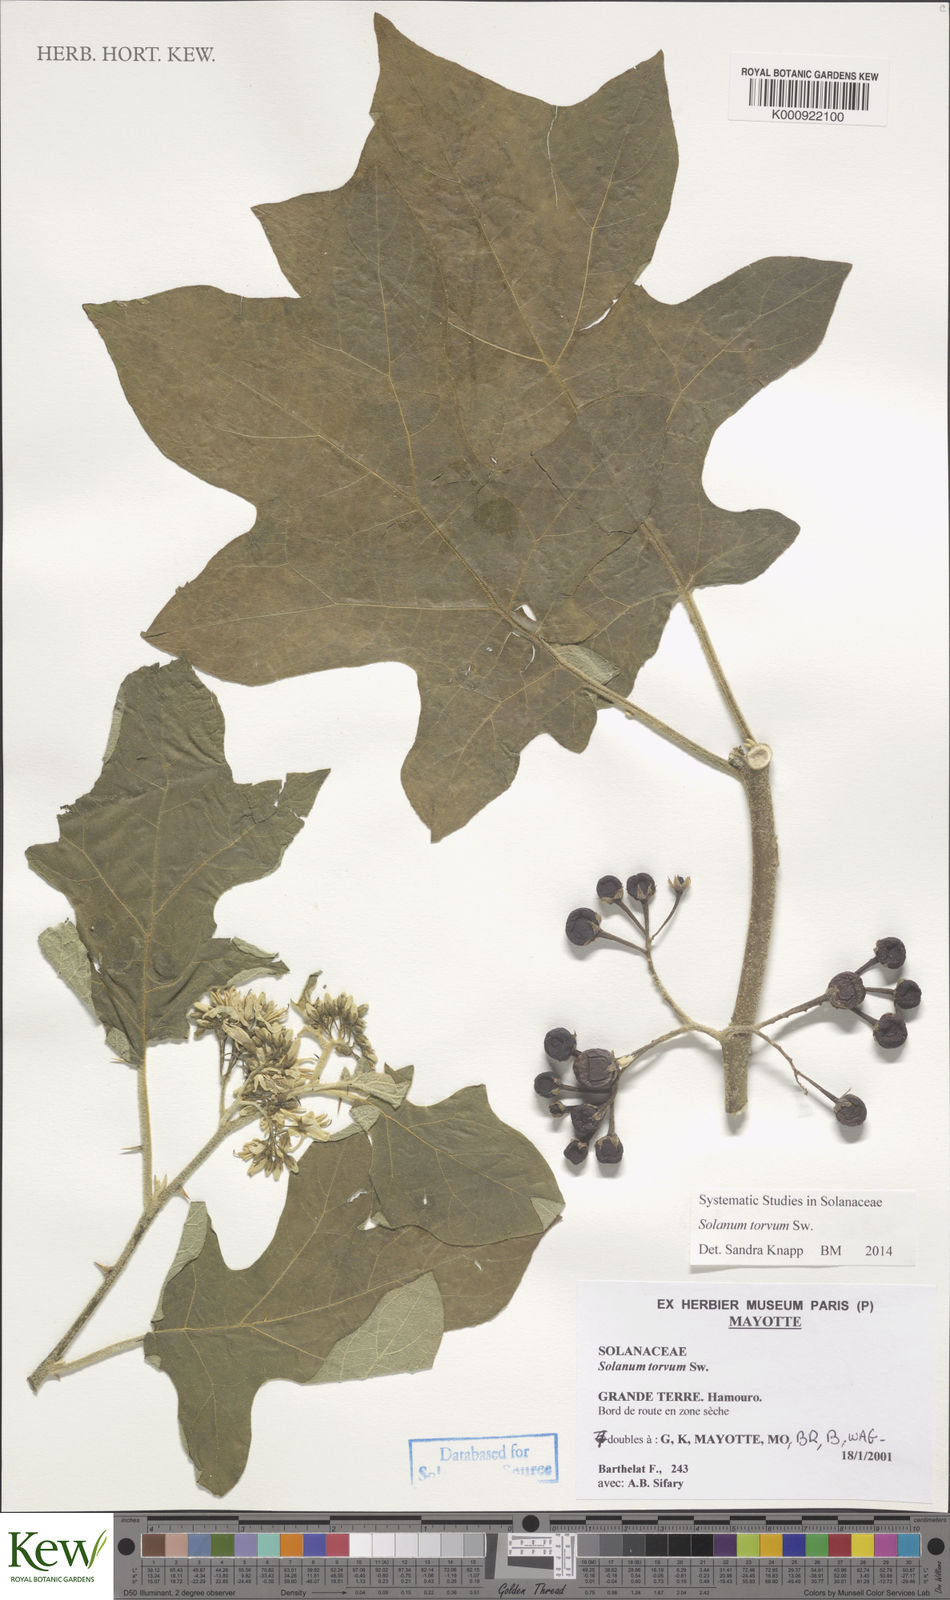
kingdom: Plantae
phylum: Tracheophyta
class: Magnoliopsida
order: Solanales
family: Solanaceae
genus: Solanum
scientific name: Solanum torvum
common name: Turkey berry
